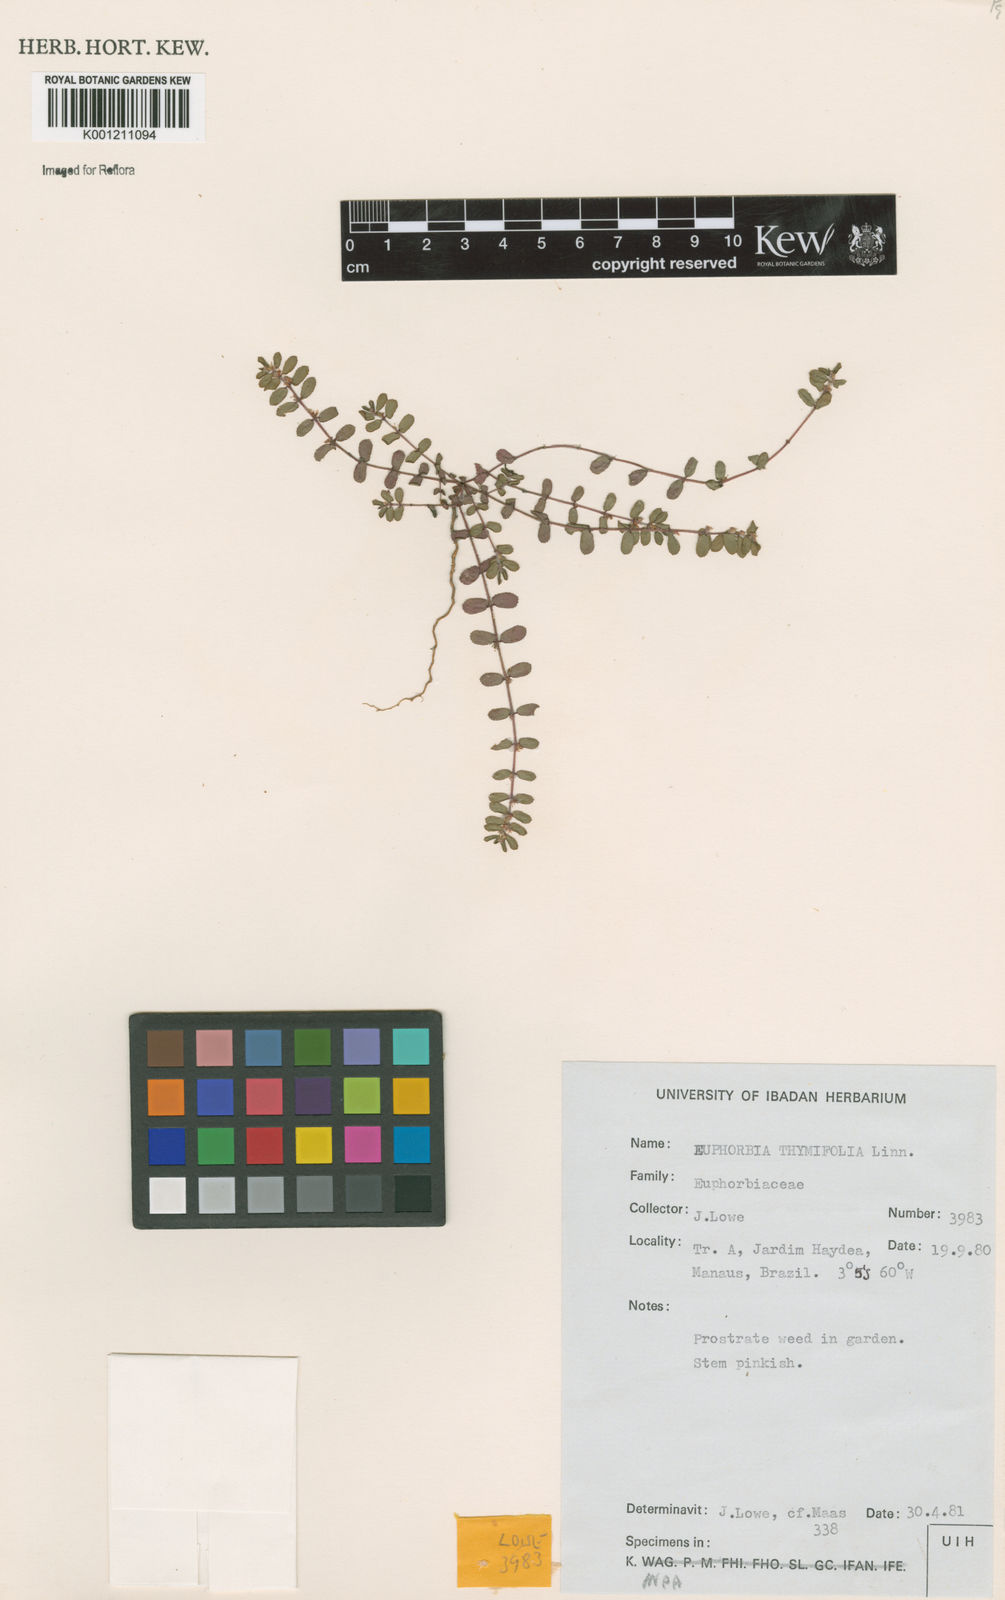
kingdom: Plantae
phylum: Tracheophyta
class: Magnoliopsida
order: Malpighiales
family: Euphorbiaceae
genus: Euphorbia
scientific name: Euphorbia thymifolia
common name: Gulf sandmat
